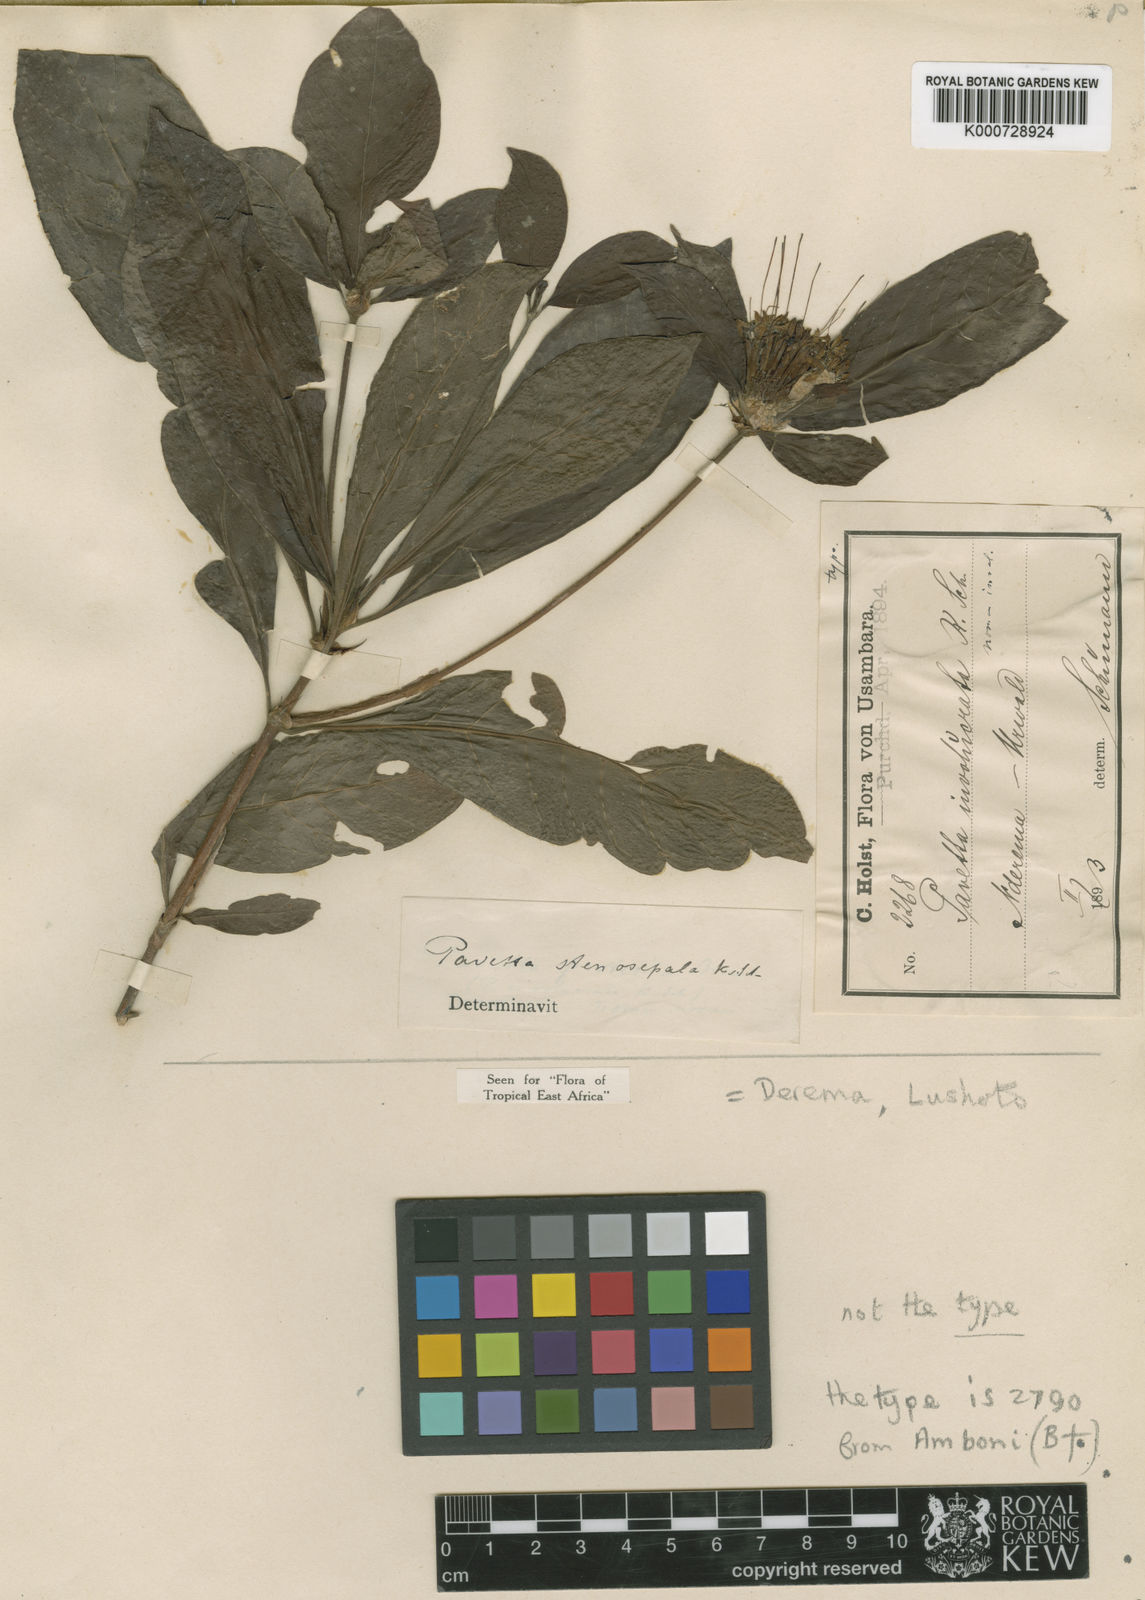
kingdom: Plantae
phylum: Tracheophyta
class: Magnoliopsida
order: Gentianales
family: Rubiaceae
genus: Pavetta
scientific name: Pavetta stenosepala
